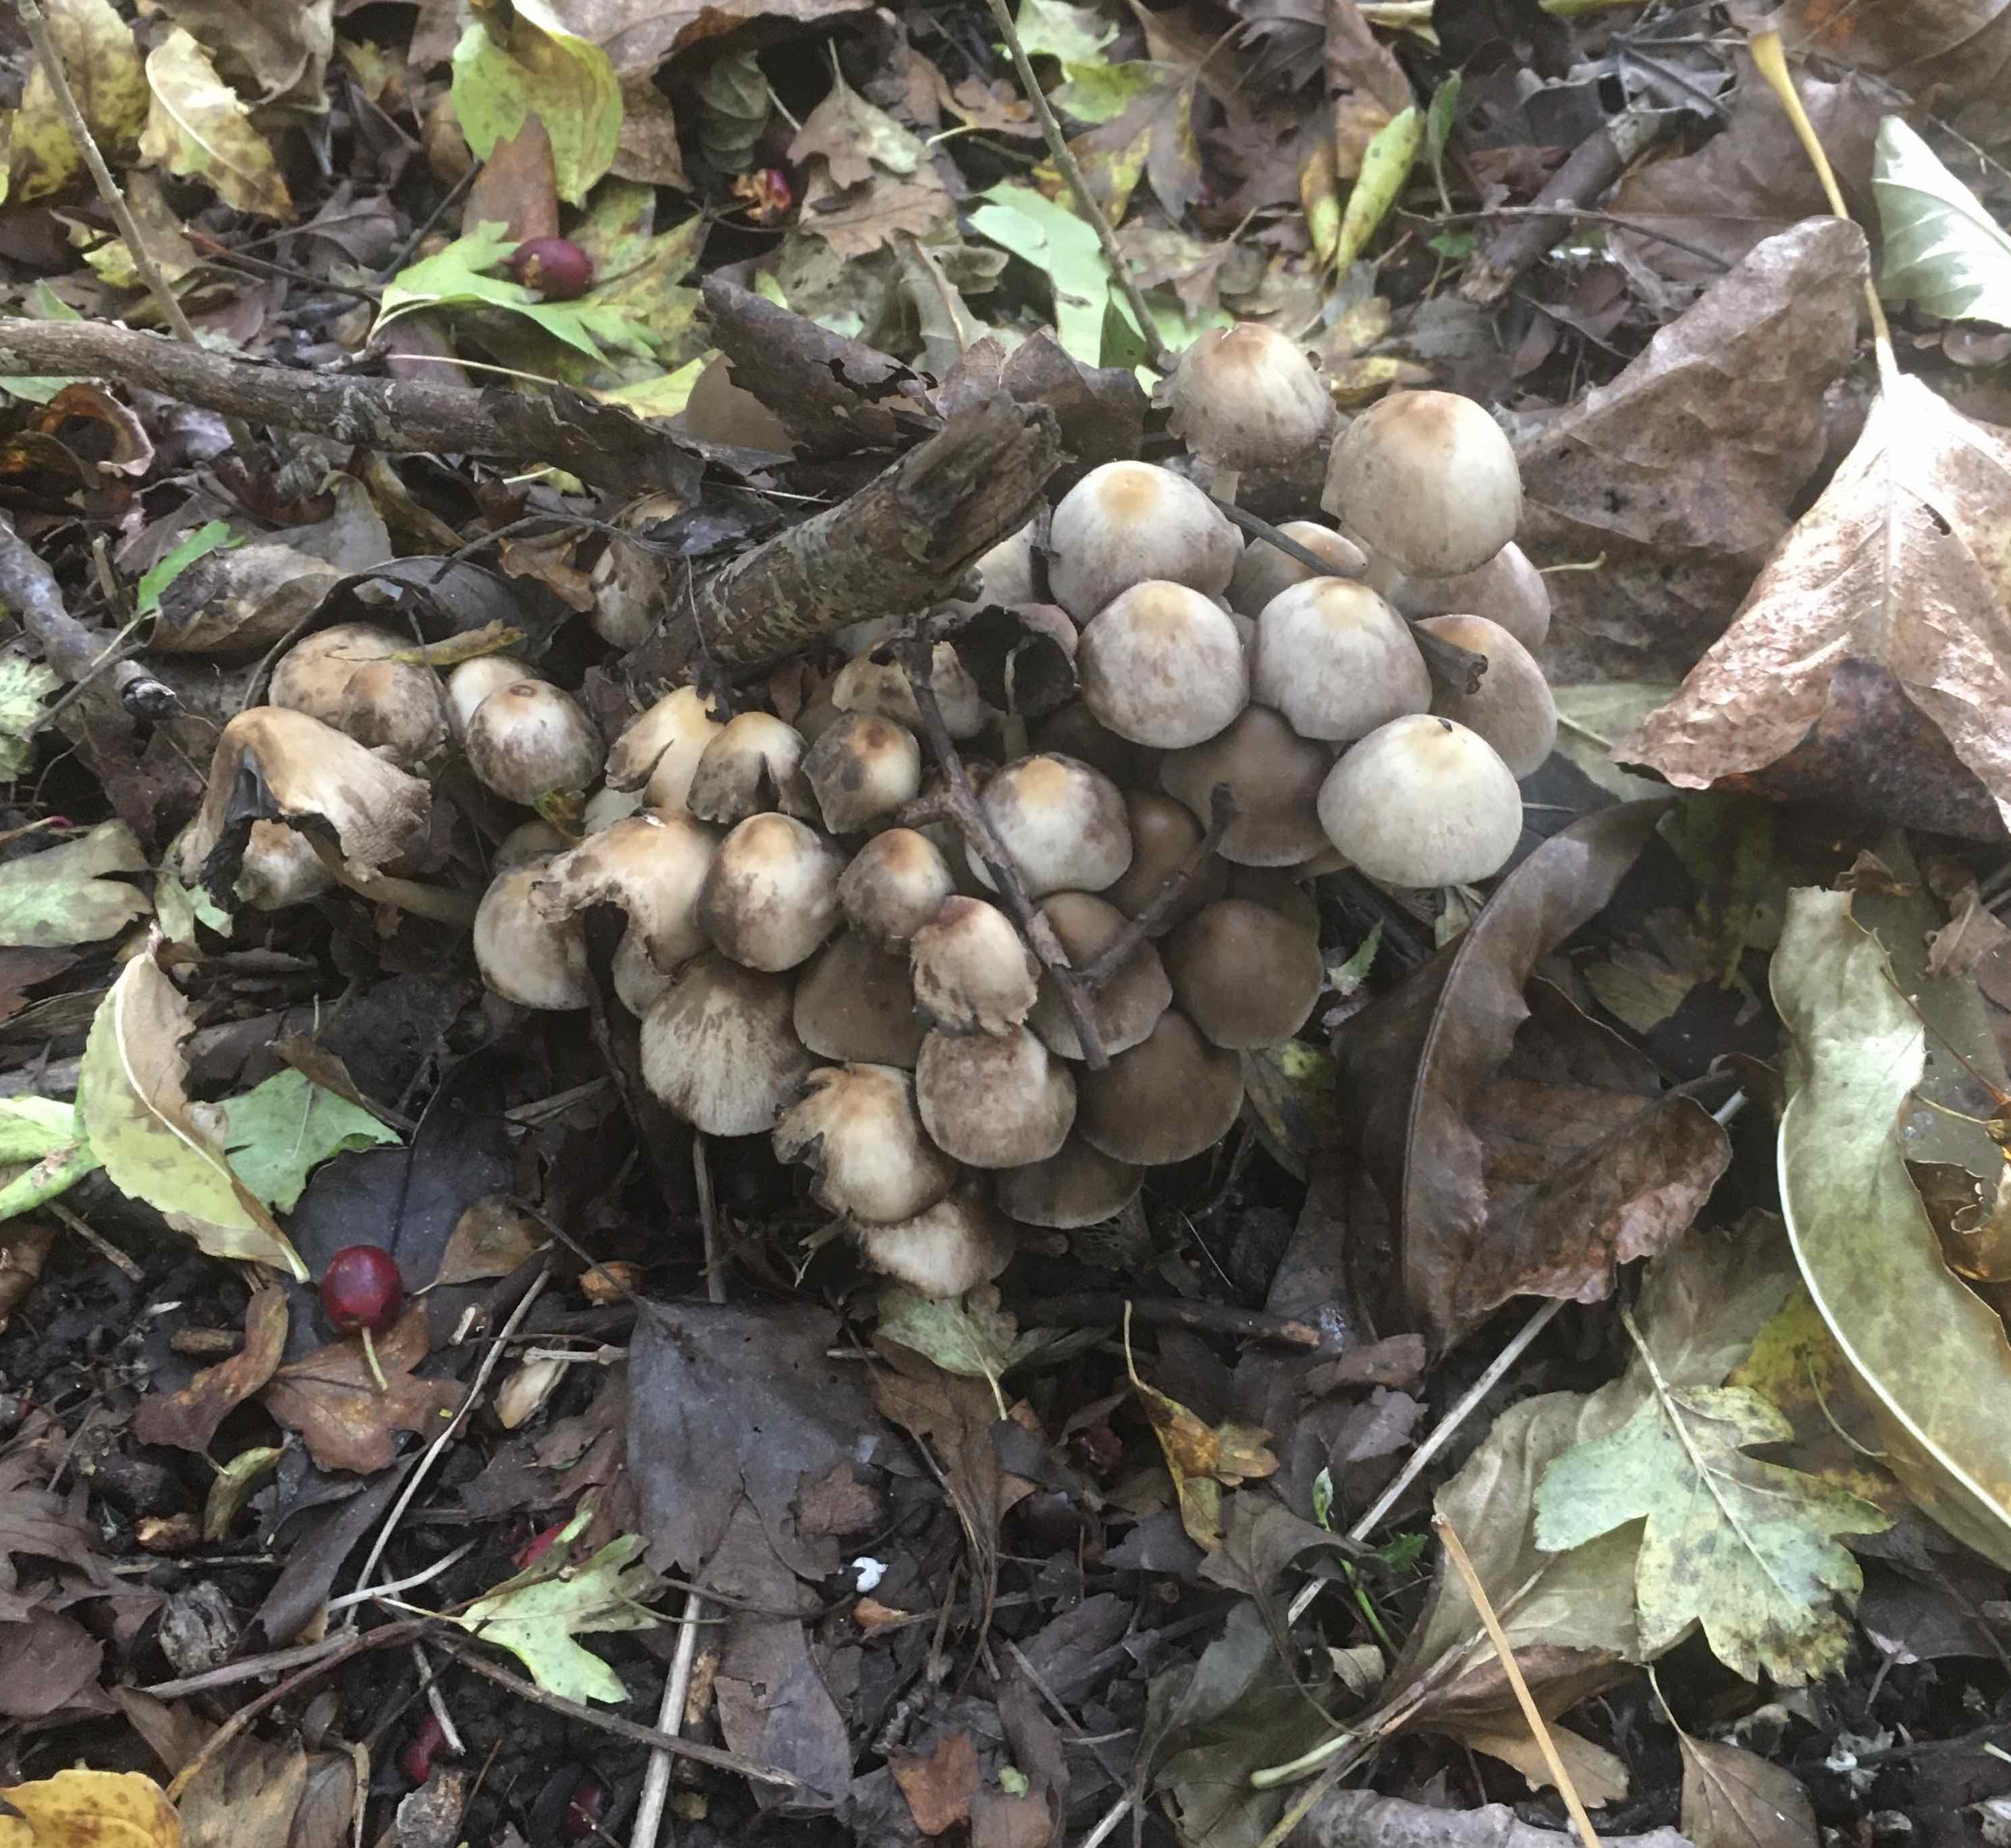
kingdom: Fungi
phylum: Basidiomycota
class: Agaricomycetes
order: Agaricales
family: Psathyrellaceae
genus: Britzelmayria
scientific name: Britzelmayria multipedata
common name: knippe-mørkhat
